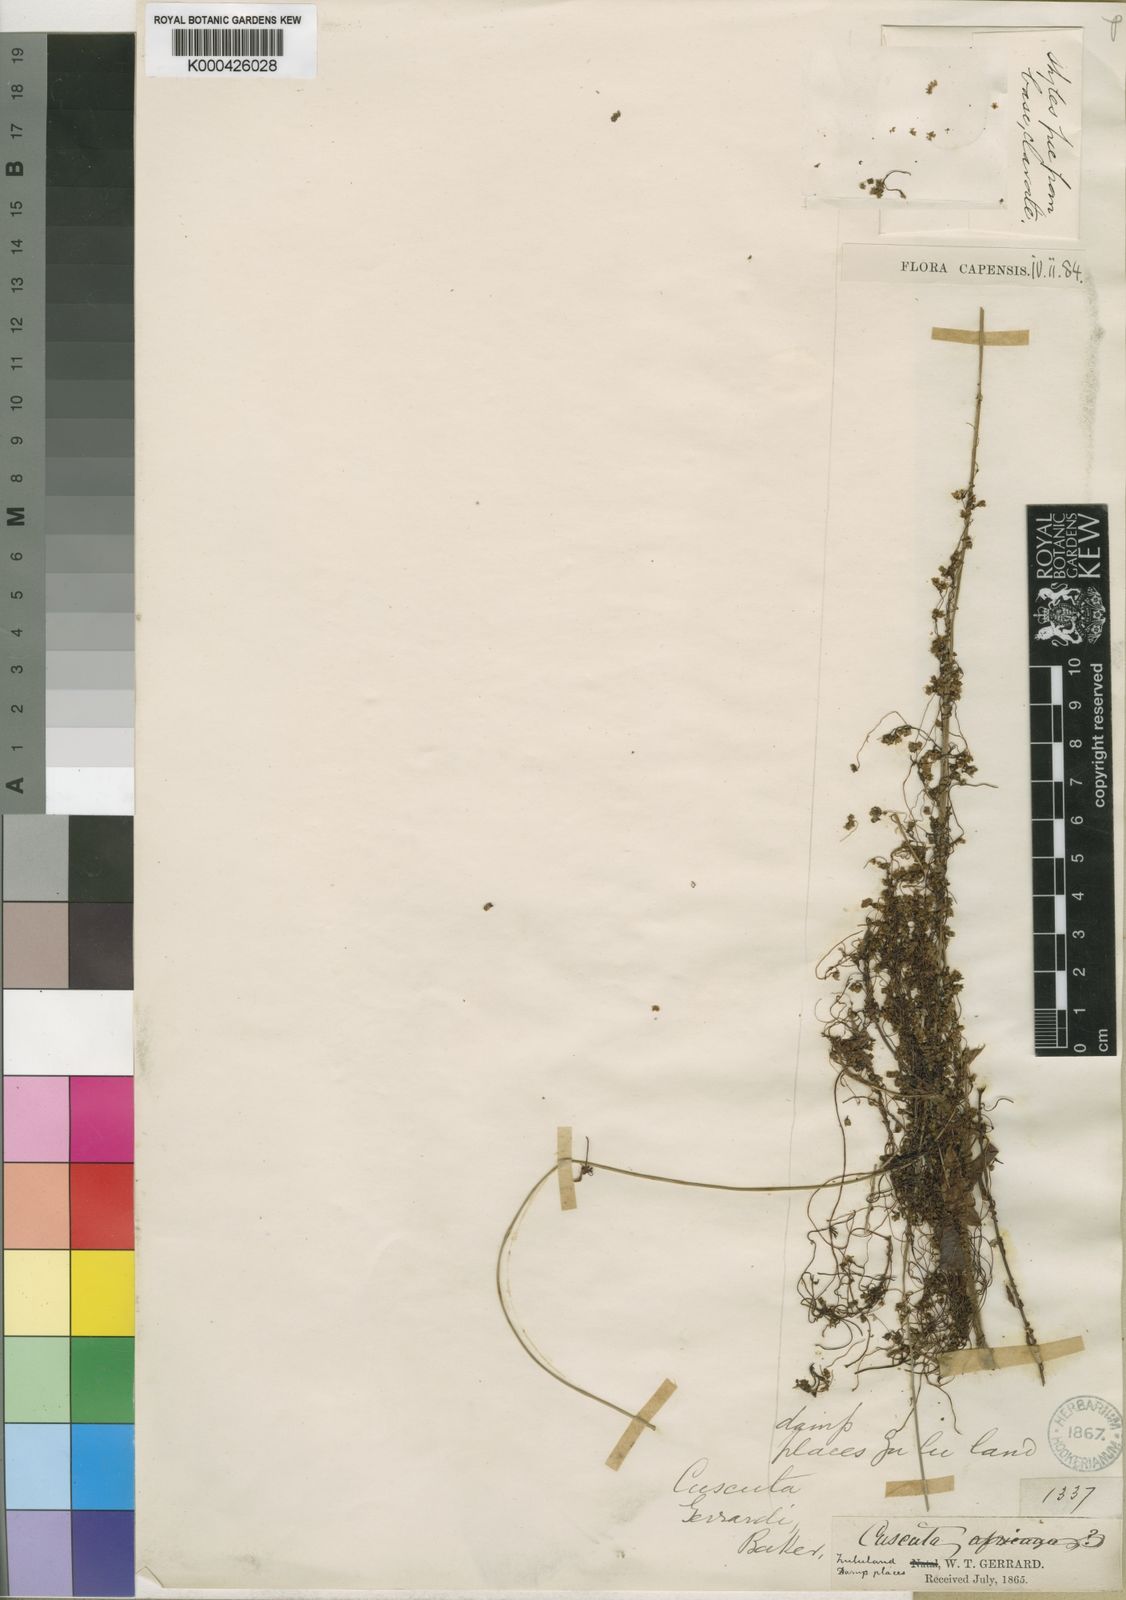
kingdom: Plantae
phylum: Tracheophyta
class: Magnoliopsida
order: Solanales
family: Convolvulaceae
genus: Cuscuta
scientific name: Cuscuta gerrardii
